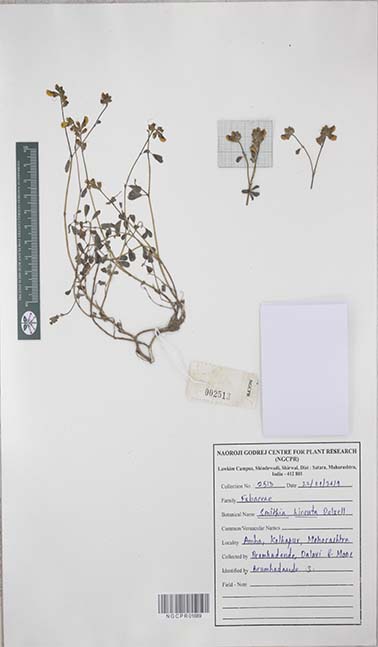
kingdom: Plantae
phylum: Tracheophyta
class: Magnoliopsida
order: Fabales
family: Fabaceae
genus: Smithia
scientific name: Smithia hirsuta
